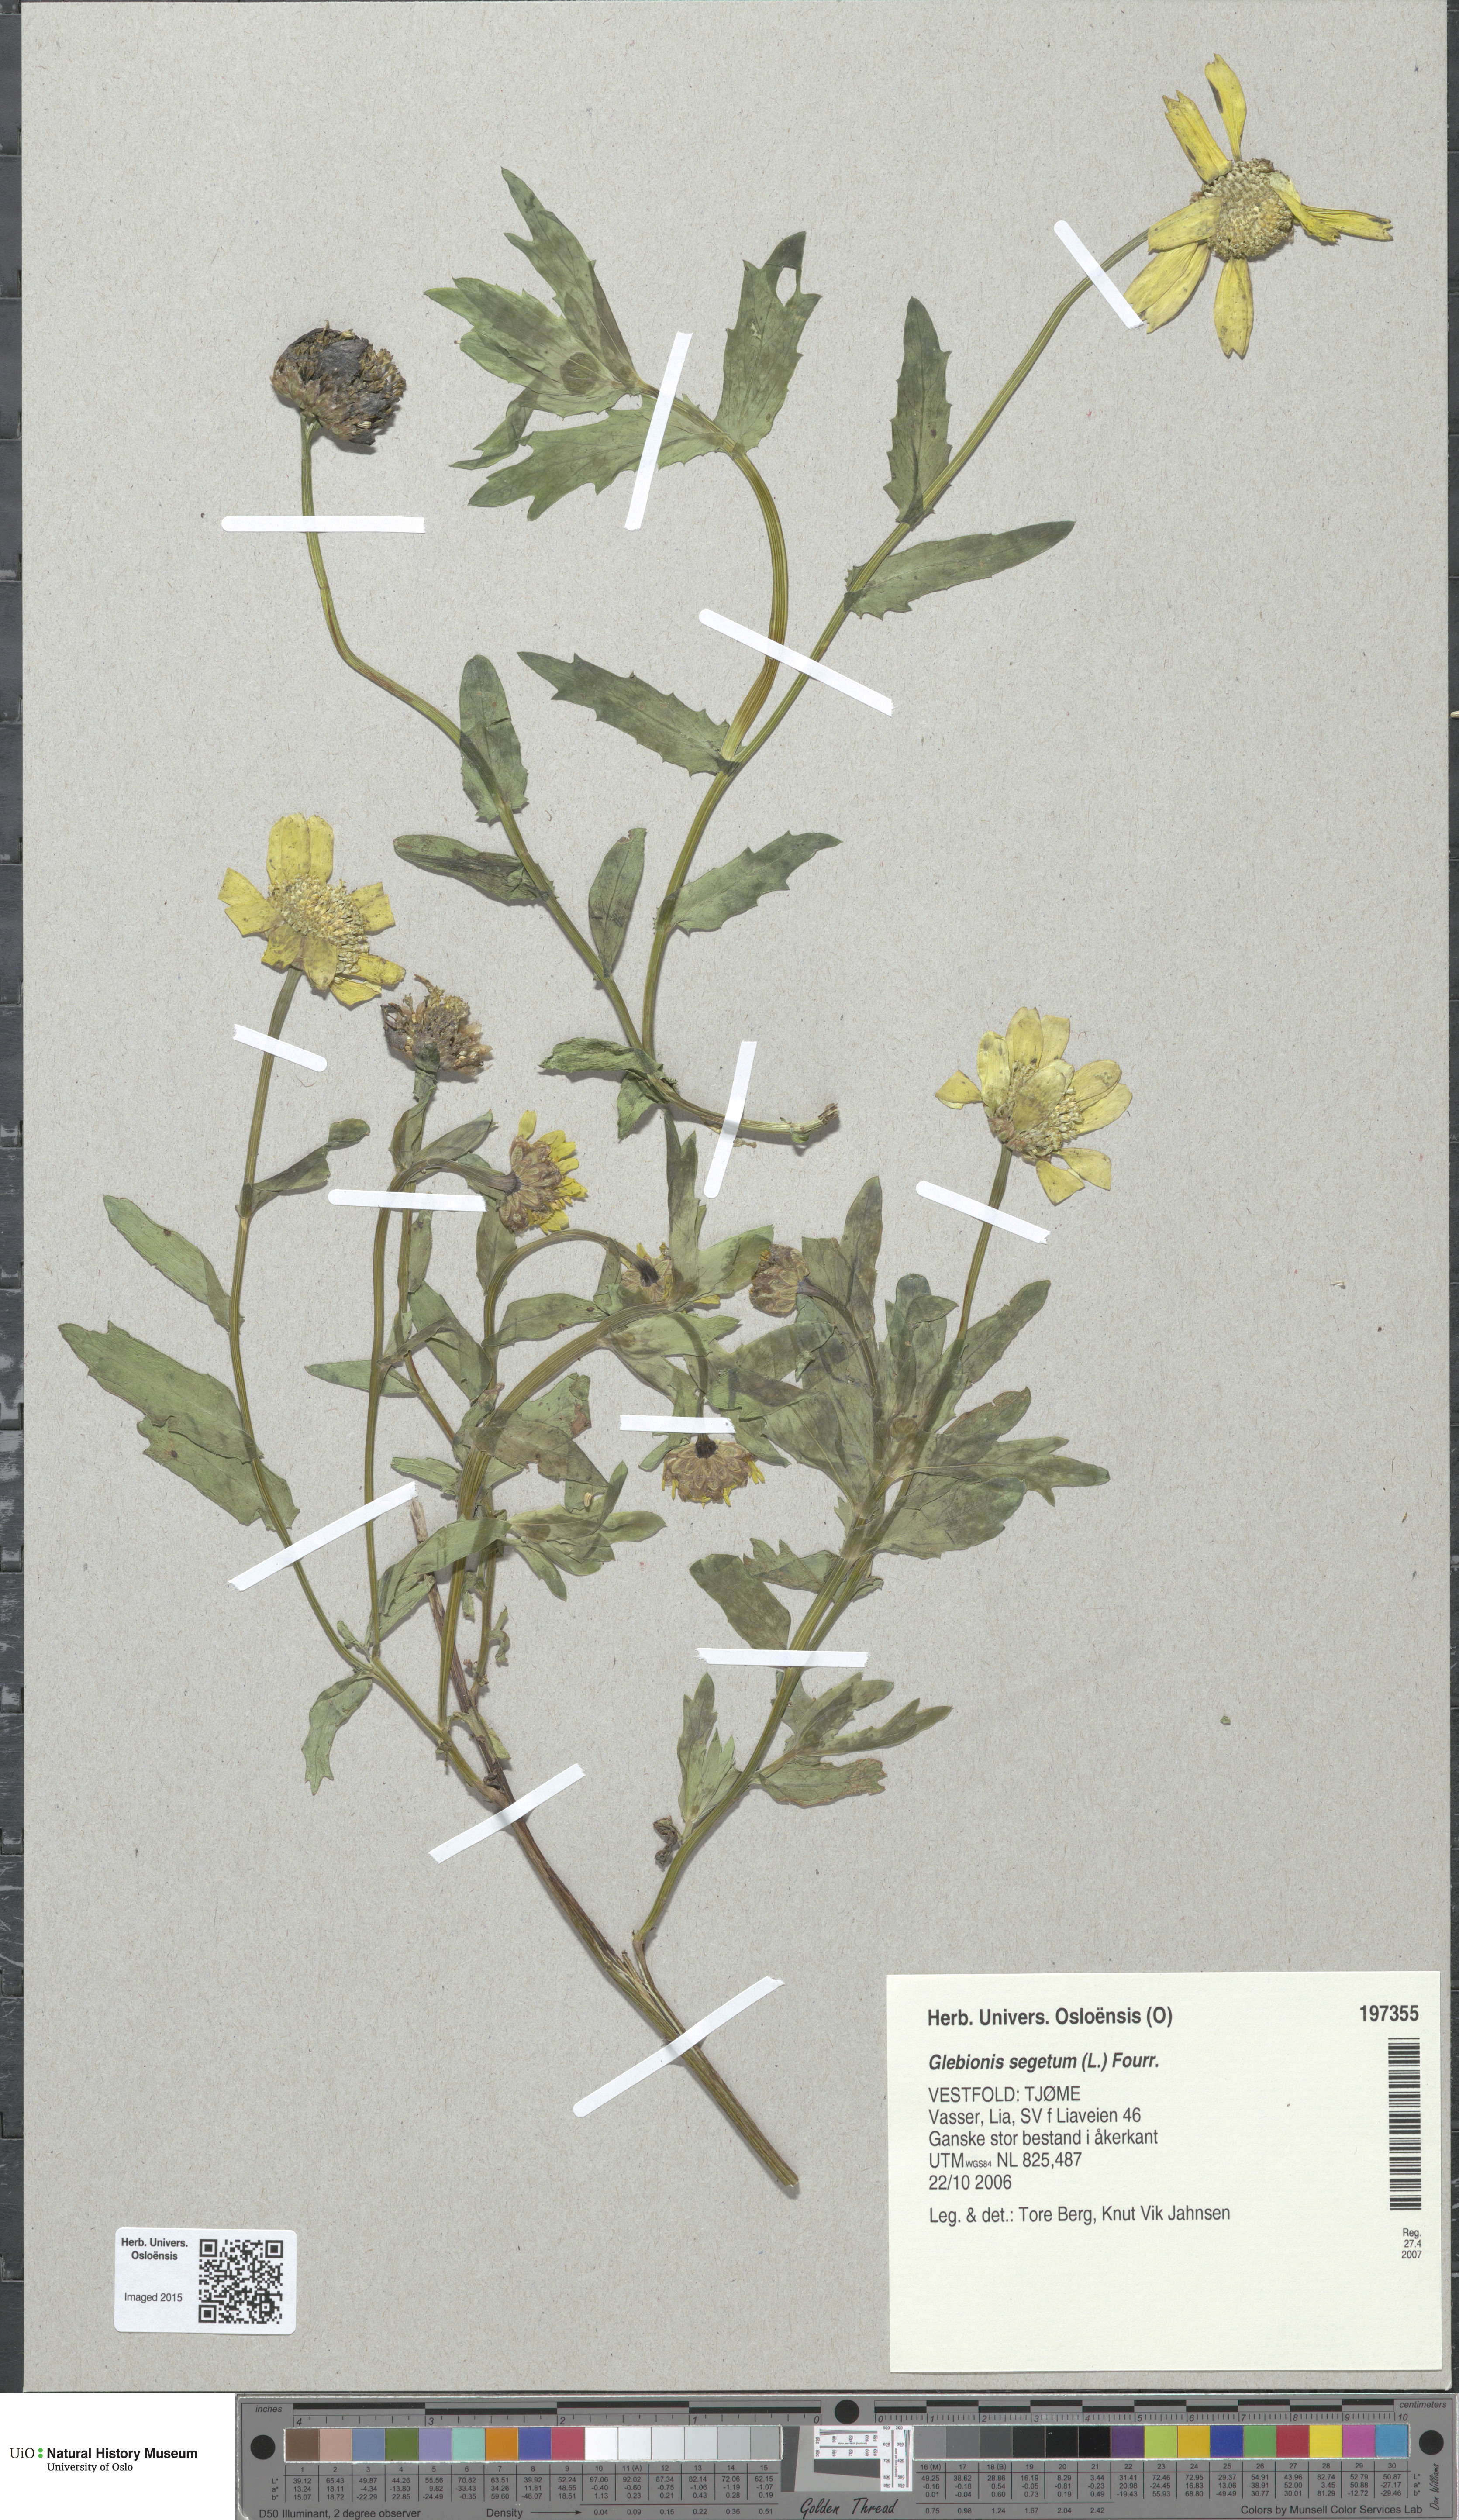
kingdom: Plantae
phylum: Tracheophyta
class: Magnoliopsida
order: Asterales
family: Asteraceae
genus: Glebionis
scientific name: Glebionis segetum
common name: Corndaisy
